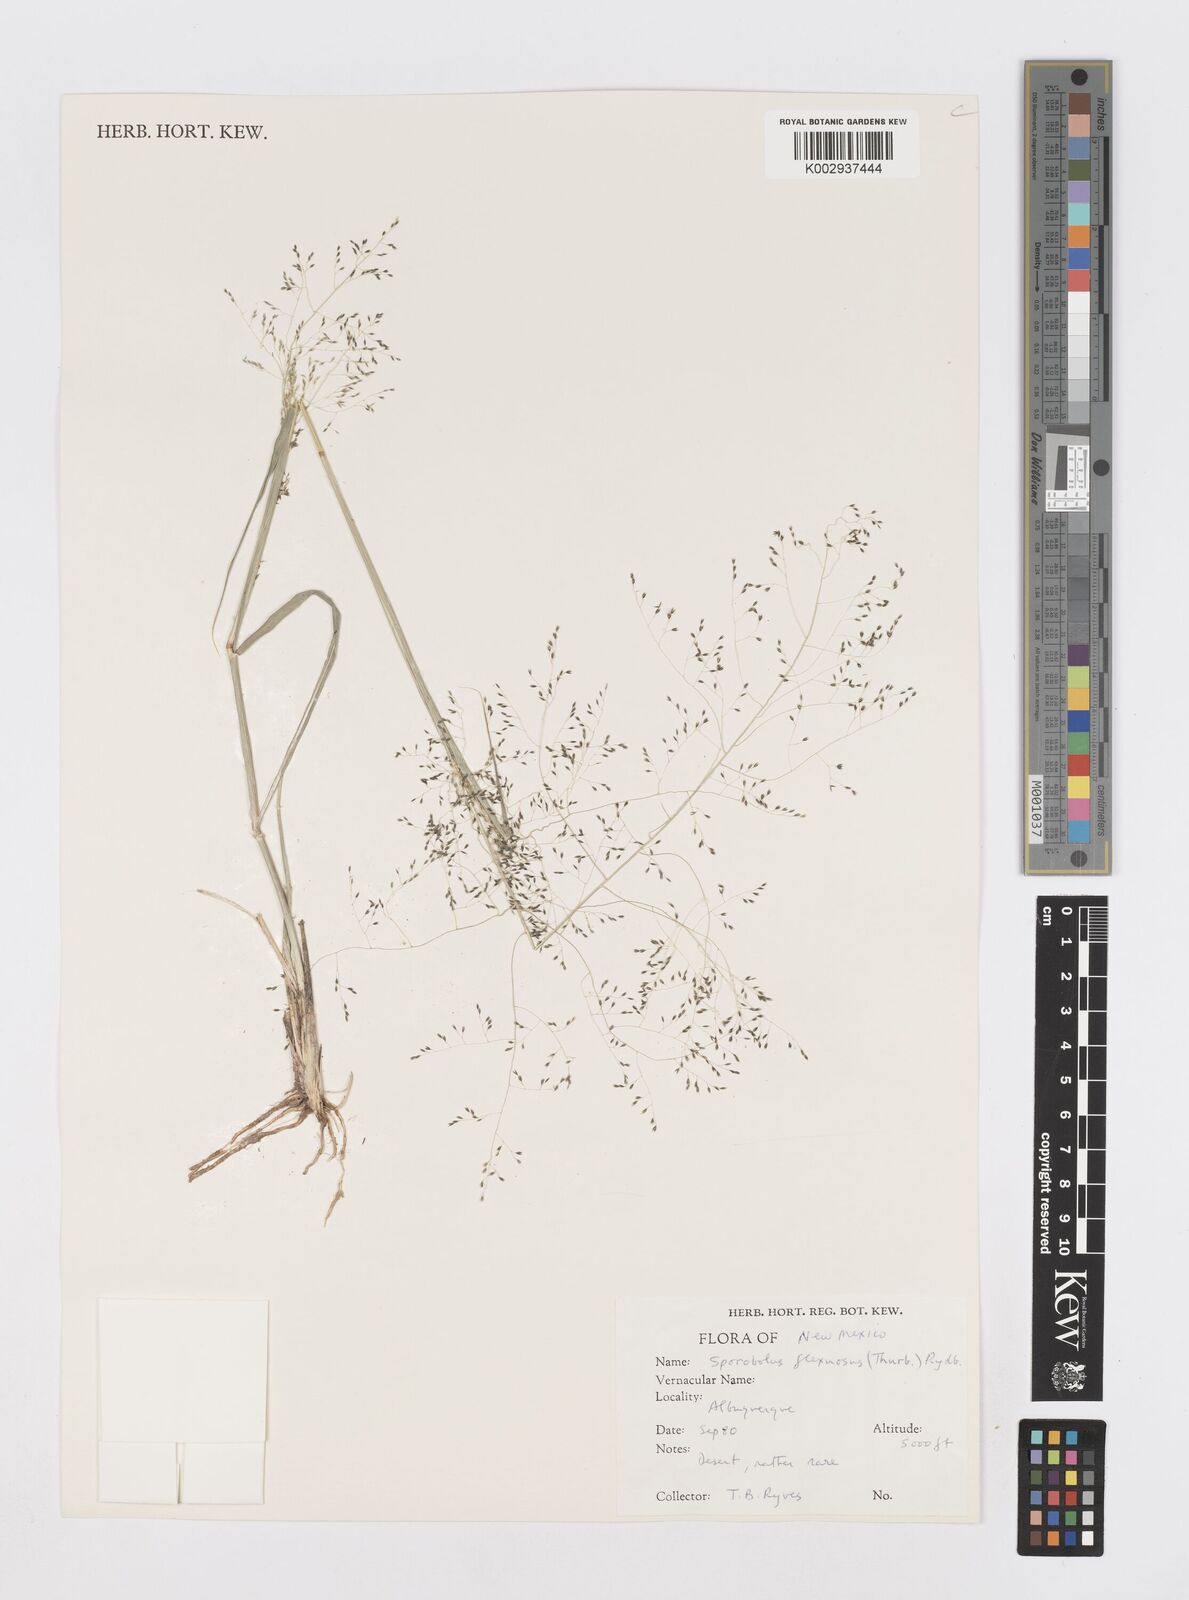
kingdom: Plantae
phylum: Tracheophyta
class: Liliopsida
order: Poales
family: Poaceae
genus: Sporobolus
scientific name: Sporobolus flexuosus
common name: Mesa dropseed
